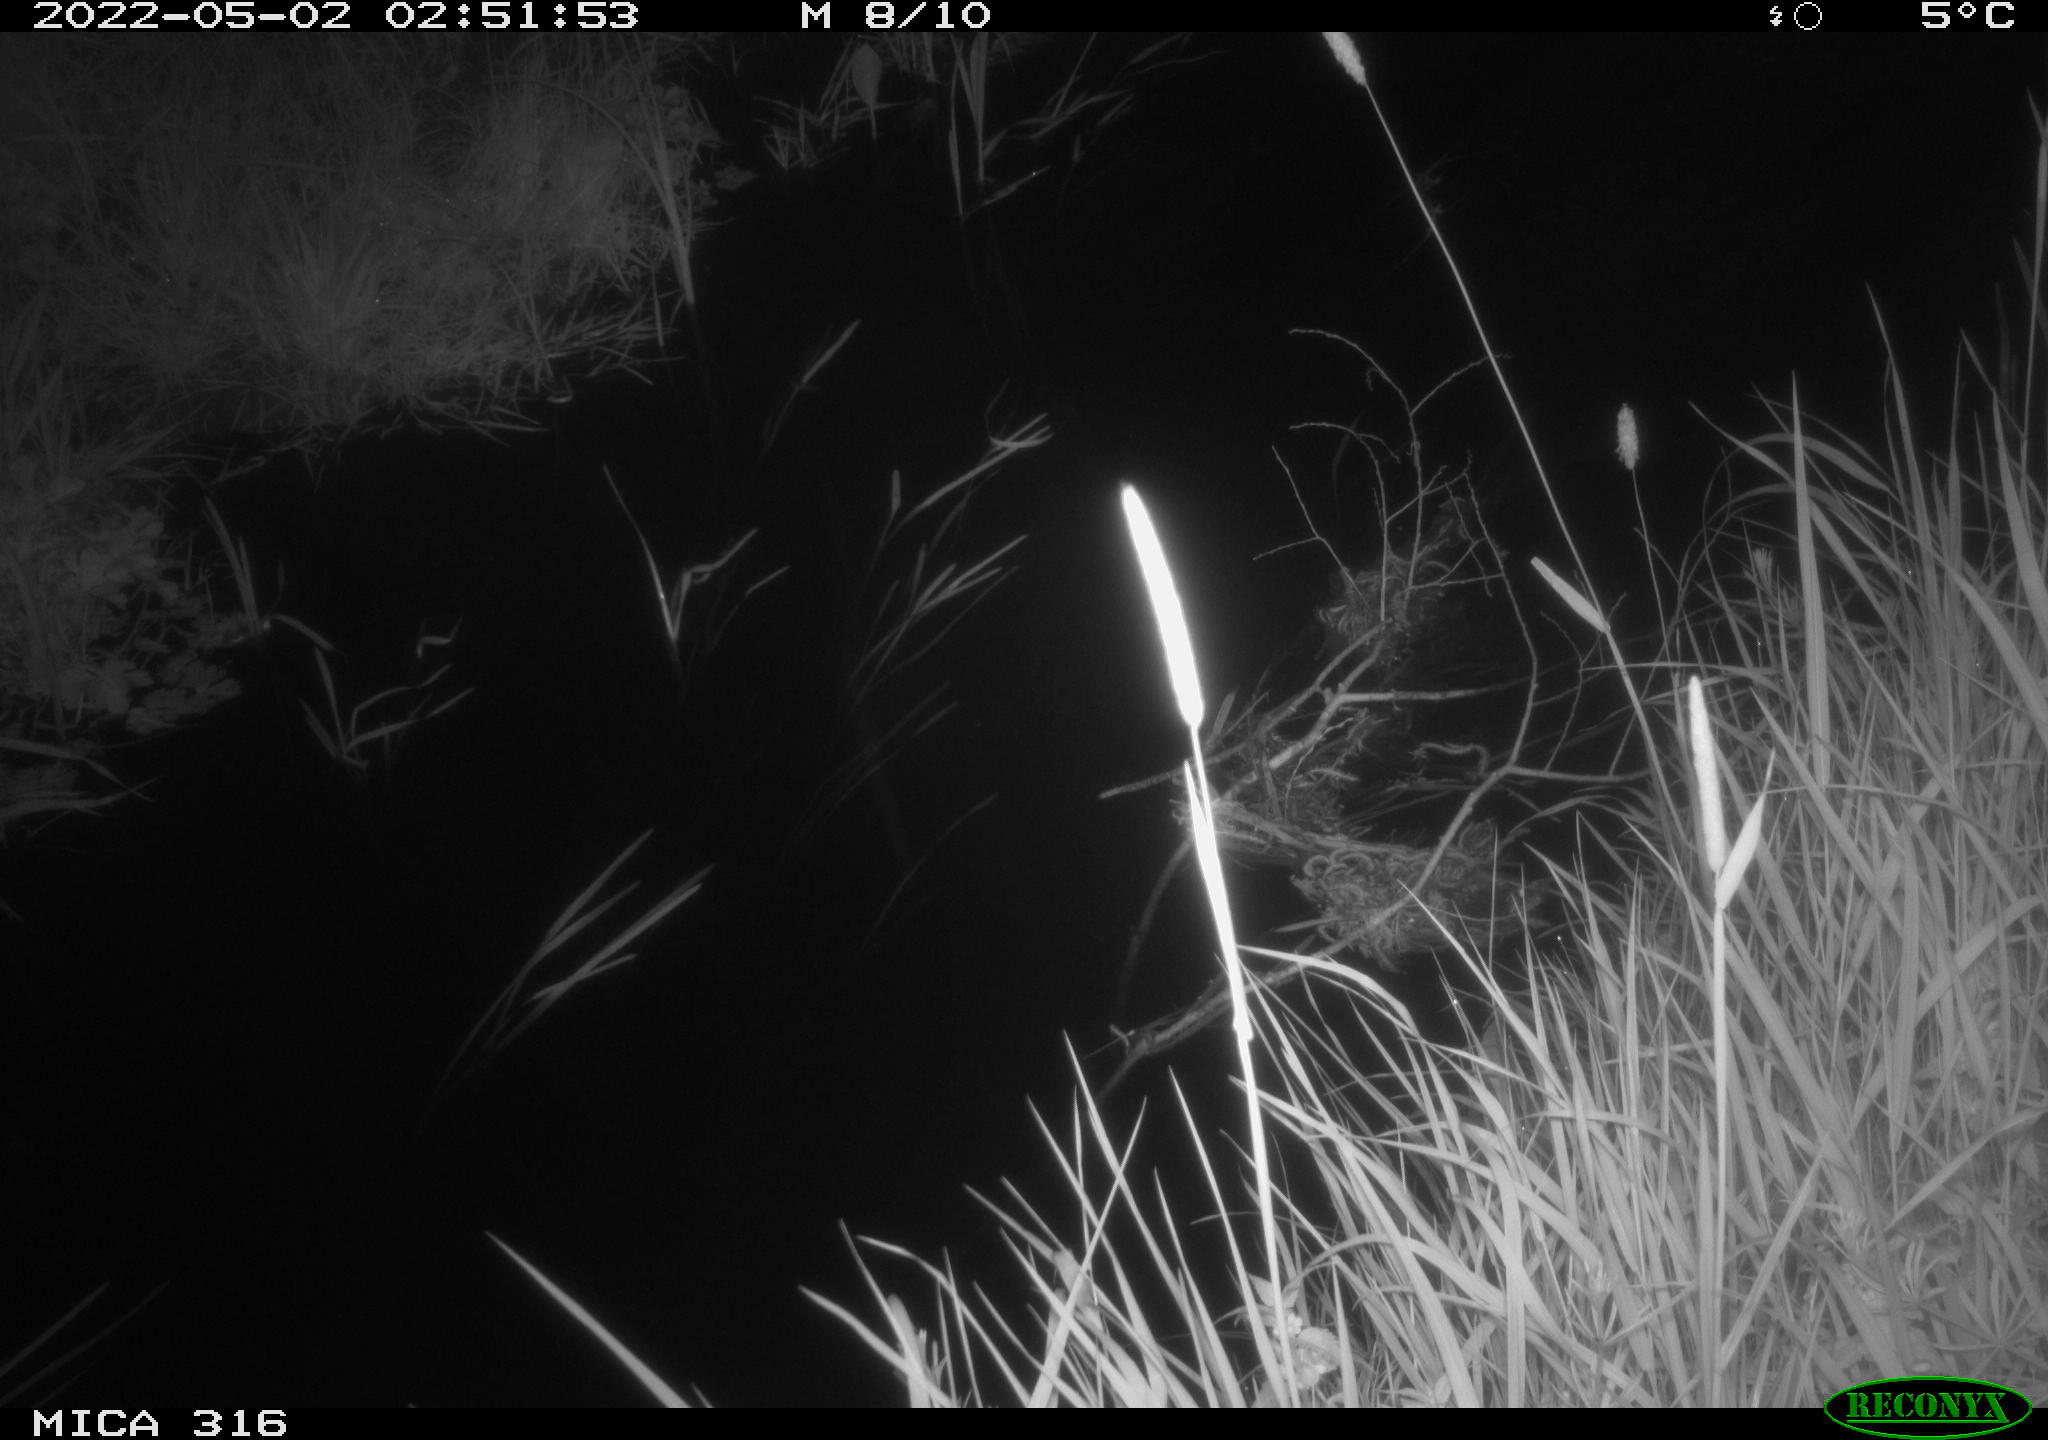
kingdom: Animalia
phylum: Chordata
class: Aves
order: Anseriformes
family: Anatidae
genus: Anas
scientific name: Anas platyrhynchos
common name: Mallard
